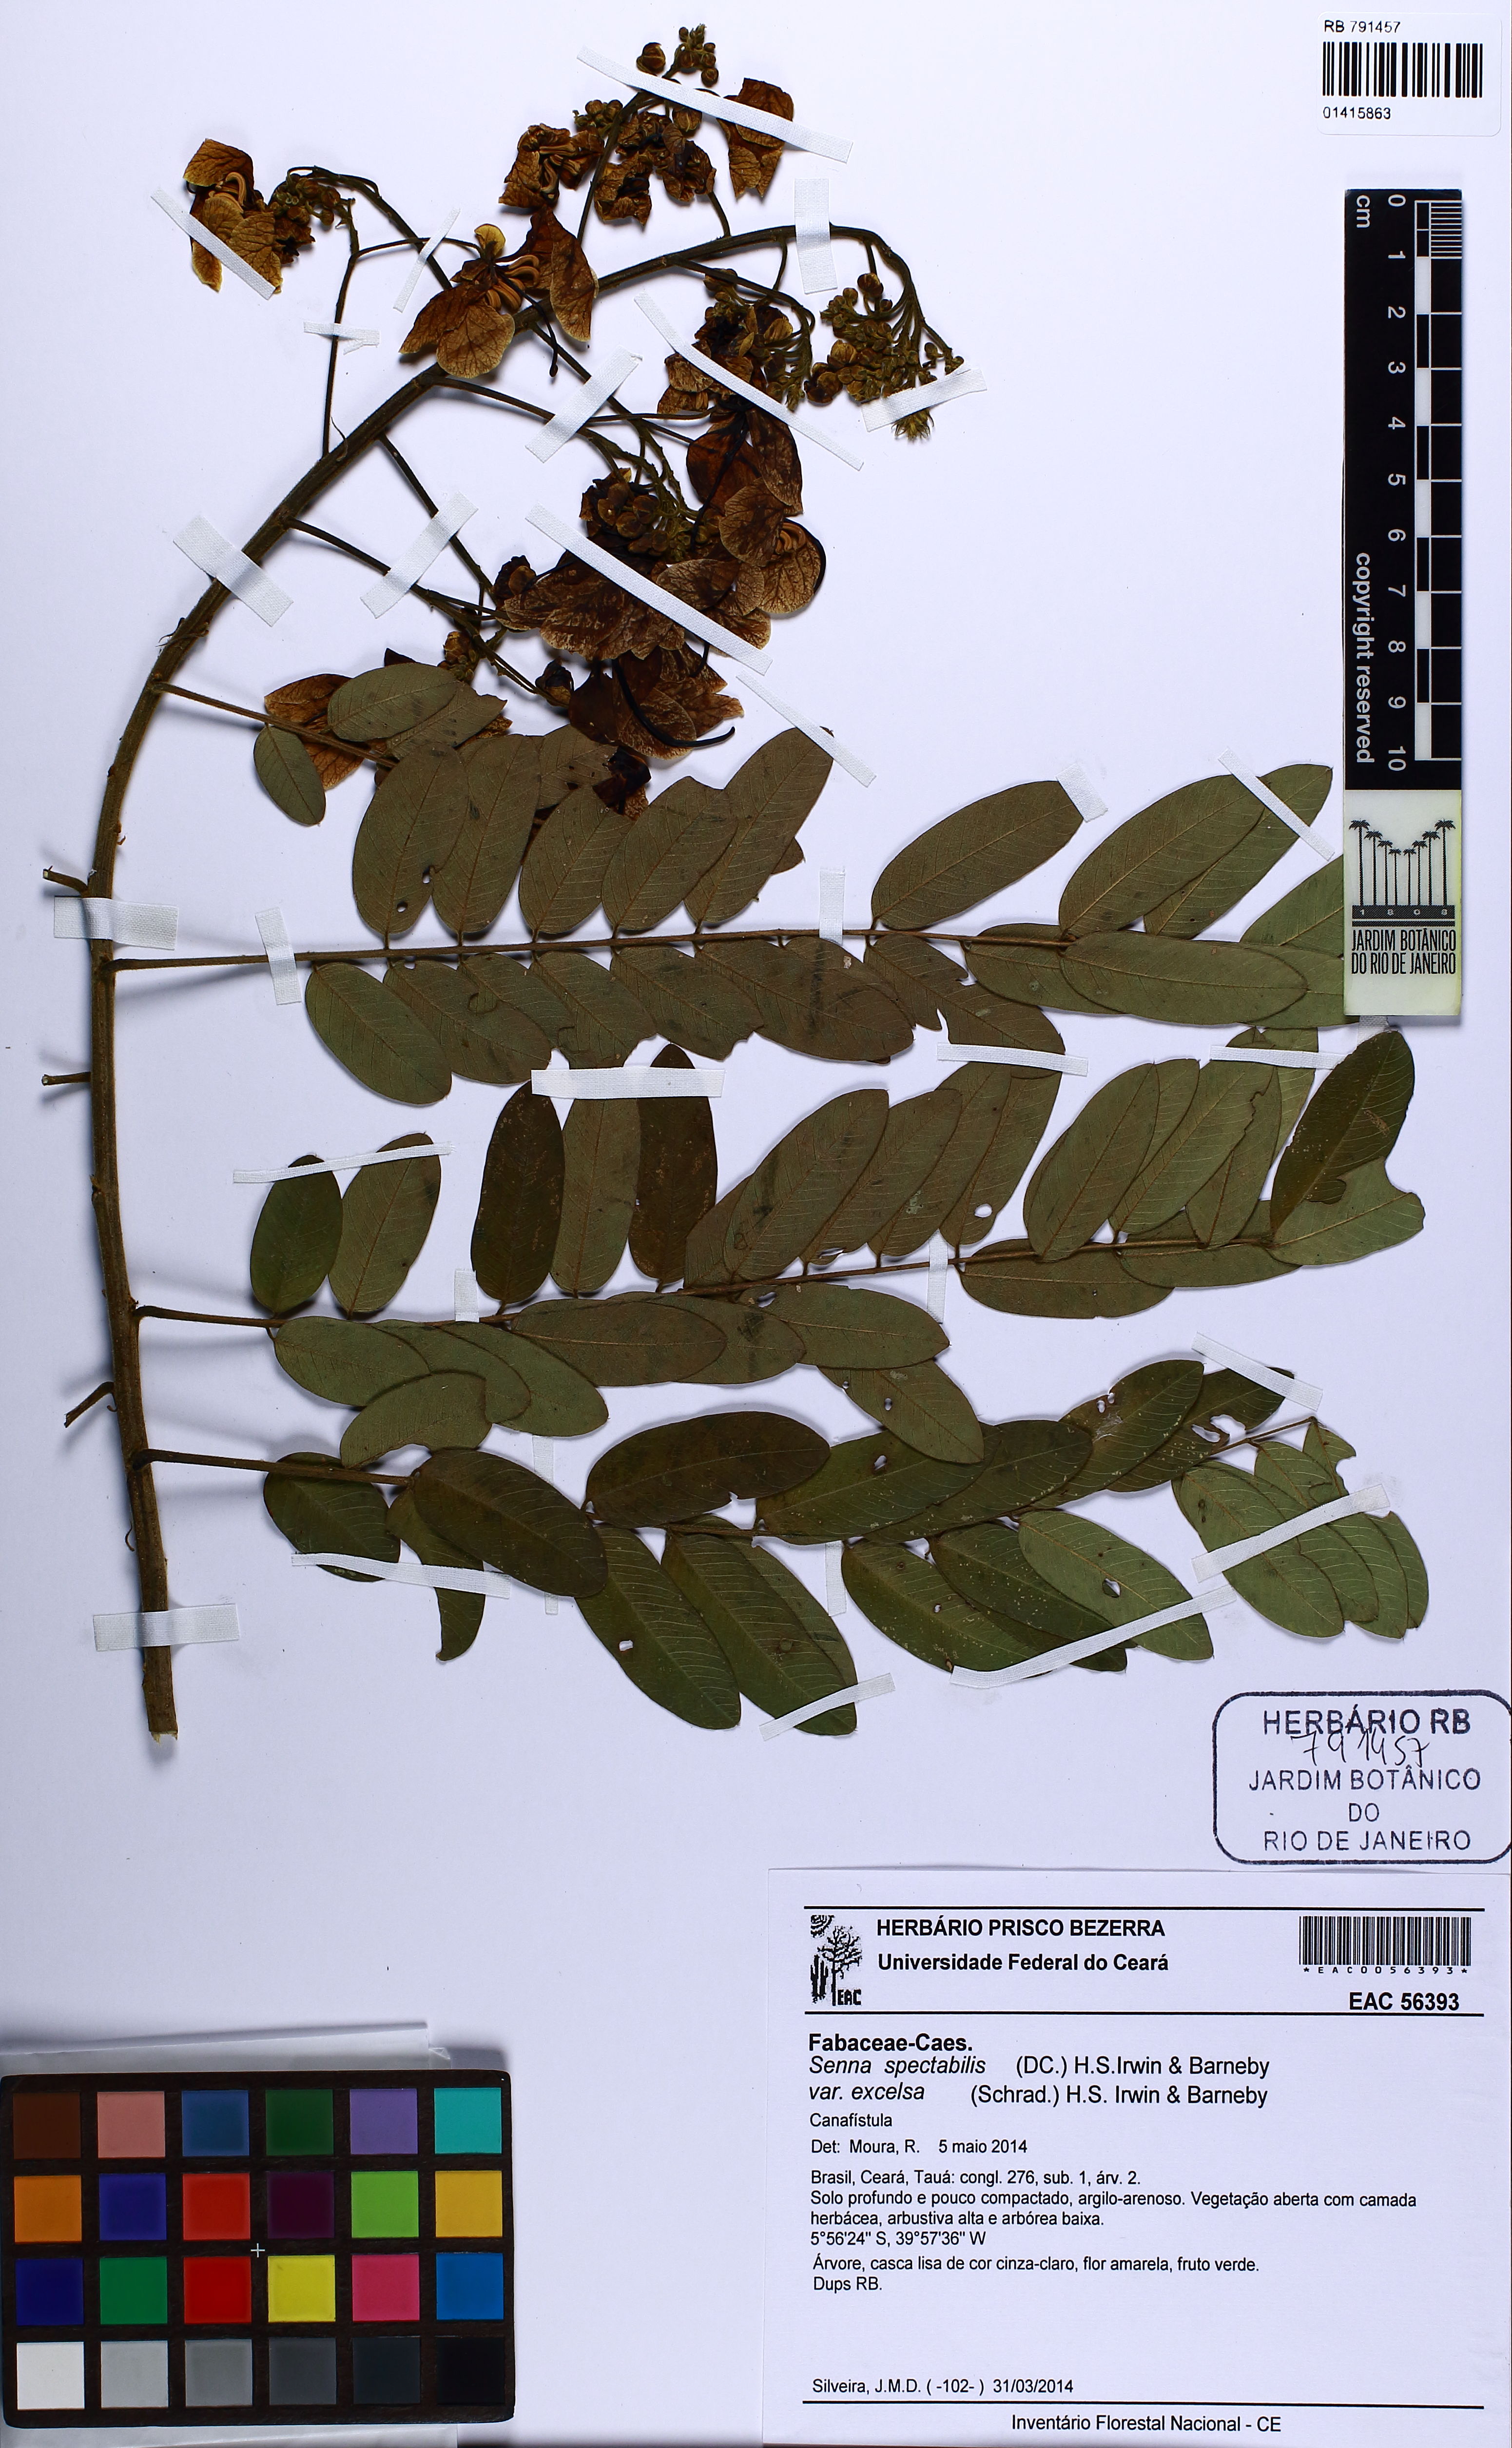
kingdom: Plantae
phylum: Tracheophyta
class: Magnoliopsida
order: Fabales
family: Fabaceae
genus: Senna
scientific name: Senna spectabilis
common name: Casia amarilla
